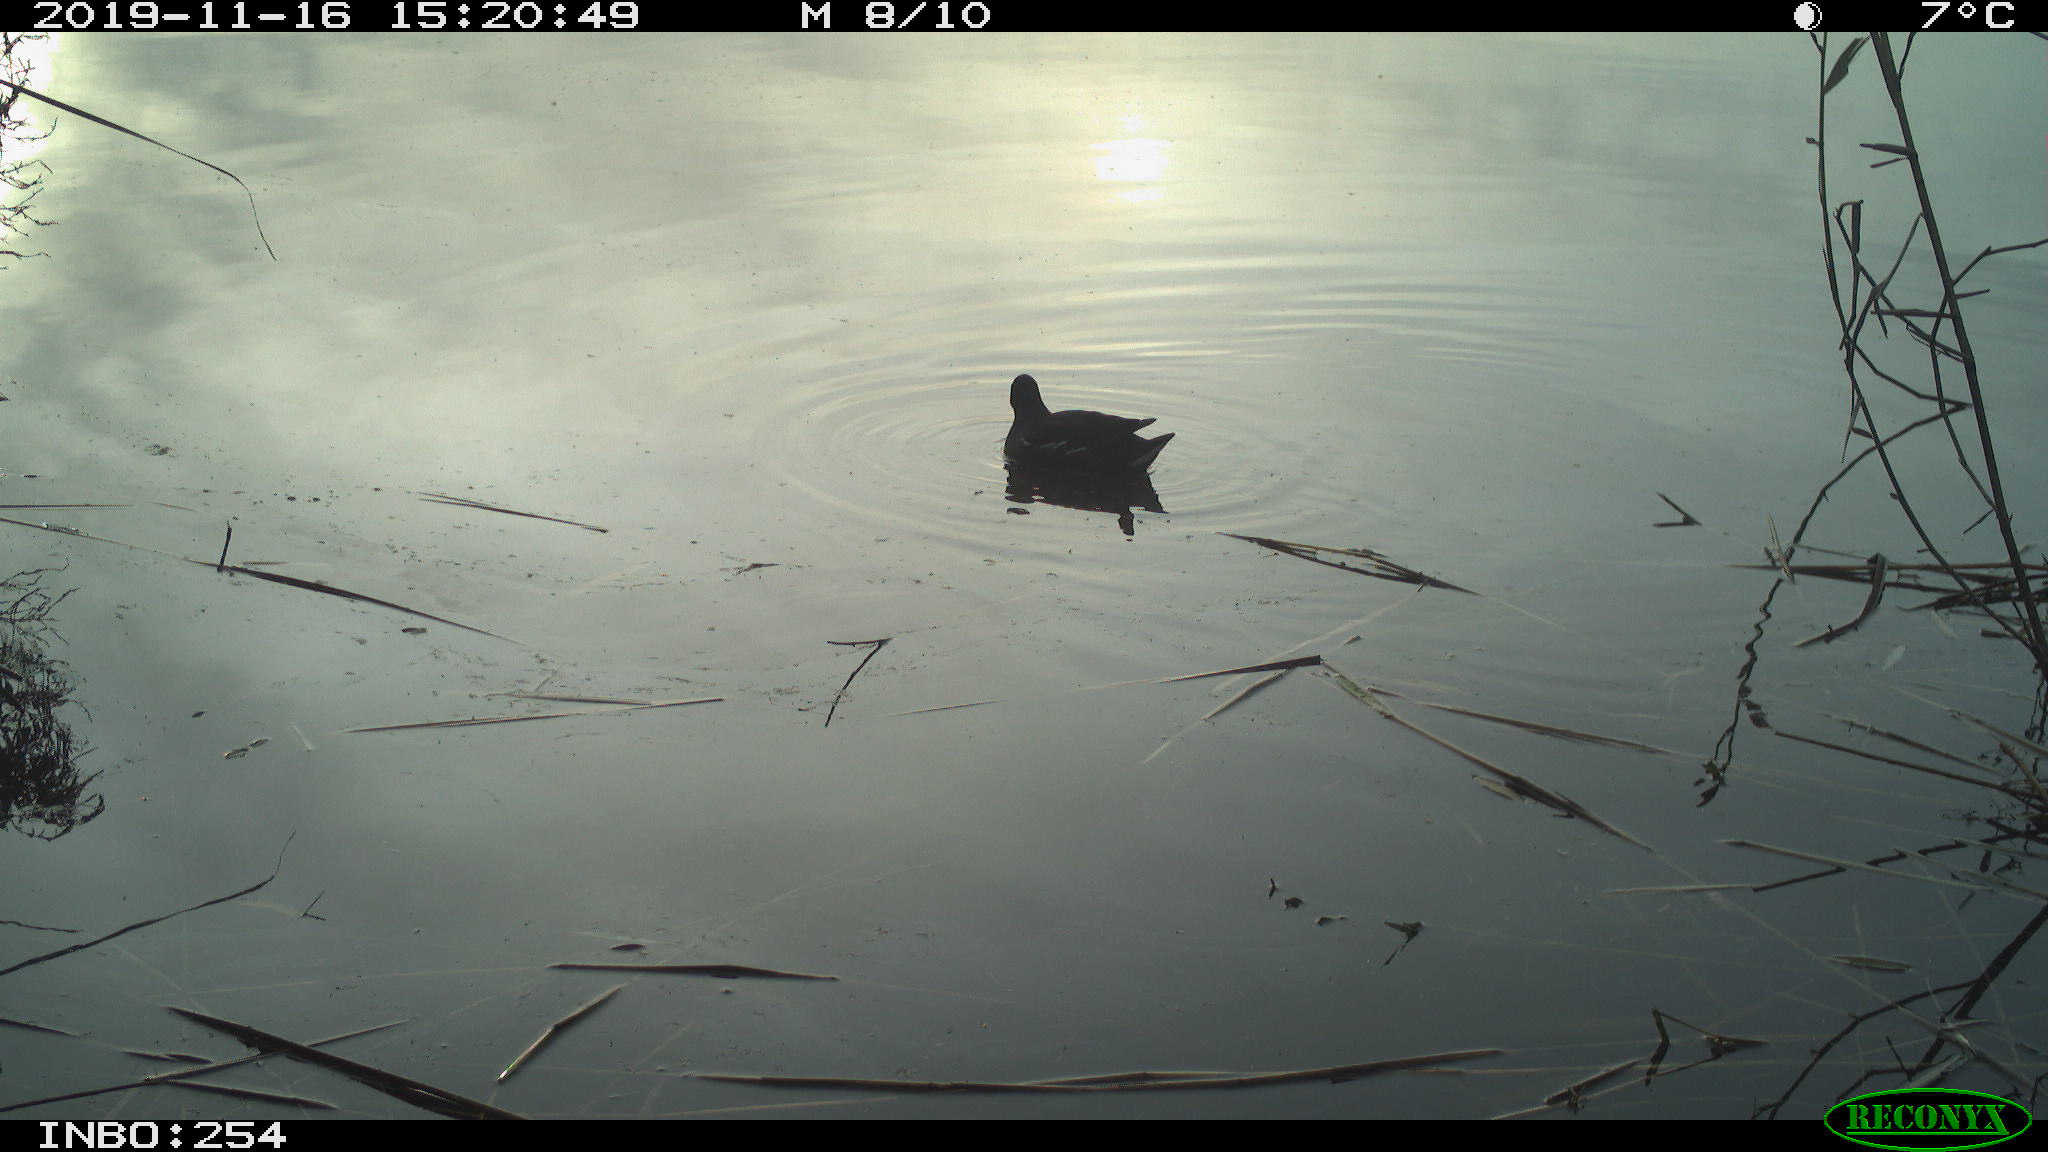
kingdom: Animalia
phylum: Chordata
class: Aves
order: Gruiformes
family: Rallidae
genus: Gallinula
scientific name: Gallinula chloropus
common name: Common moorhen
